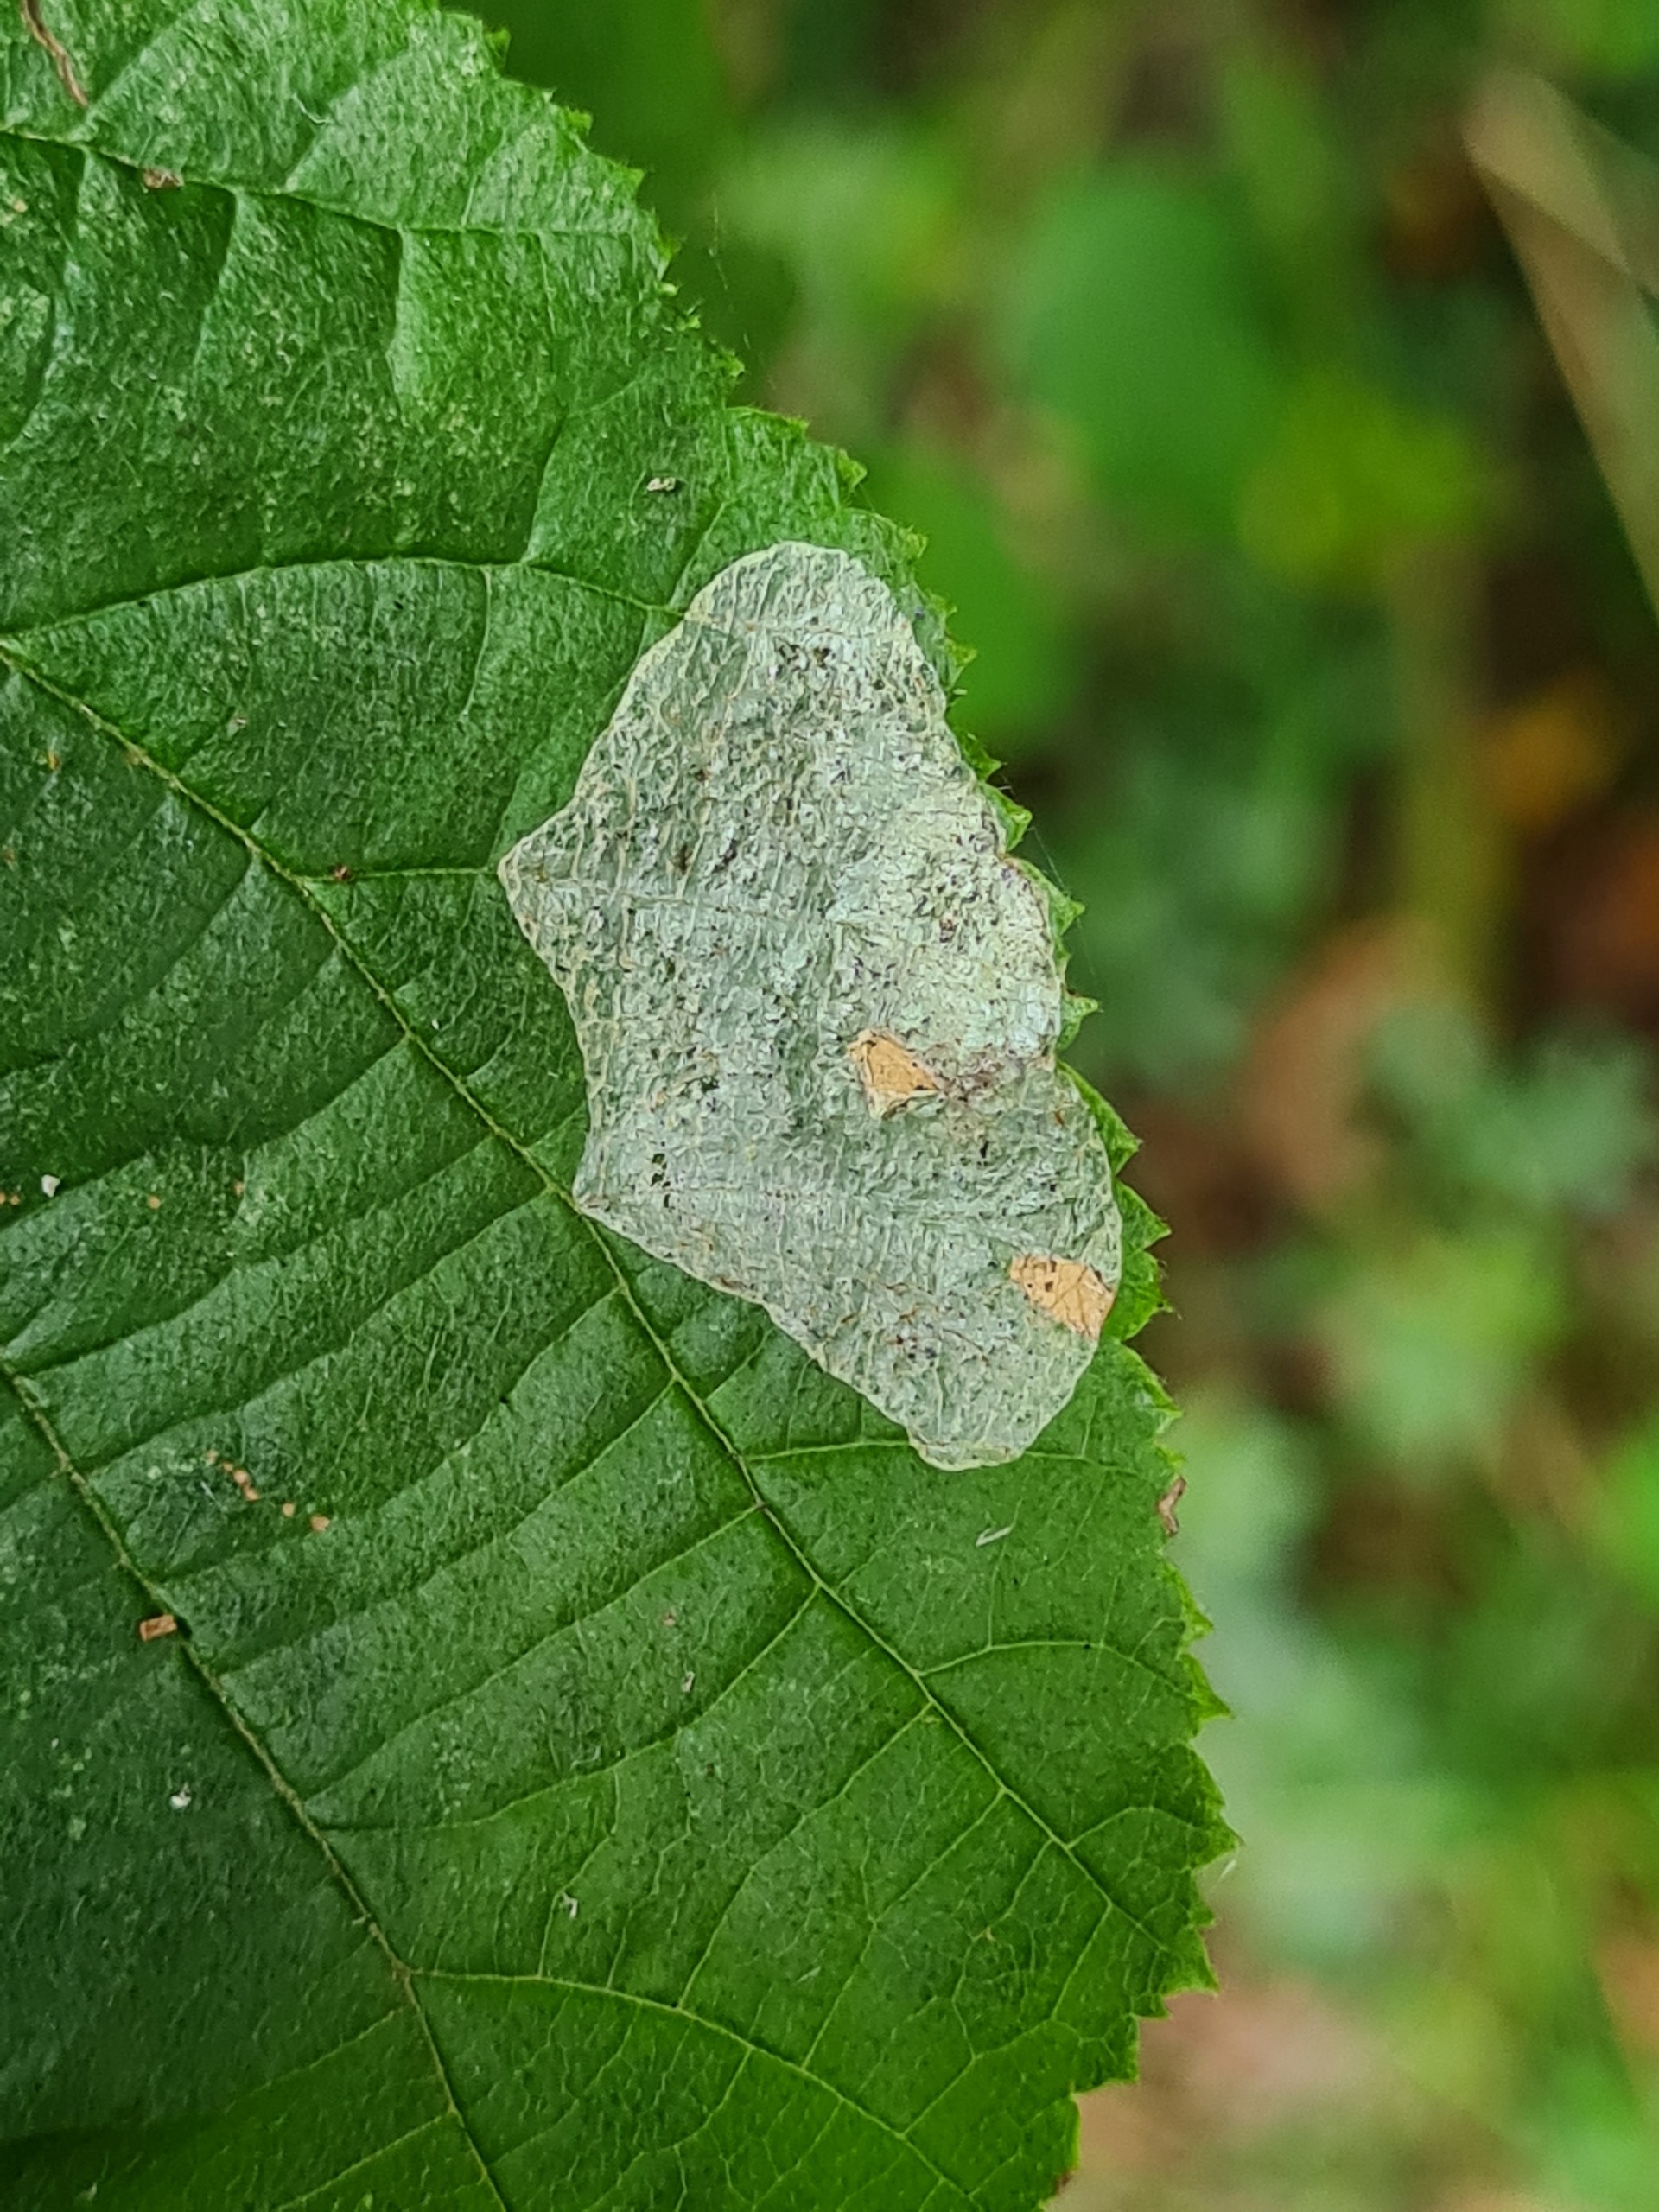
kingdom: Animalia
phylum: Arthropoda
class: Insecta
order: Lepidoptera
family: Gracillariidae
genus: Phyllonorycter
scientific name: Phyllonorycter coryli
